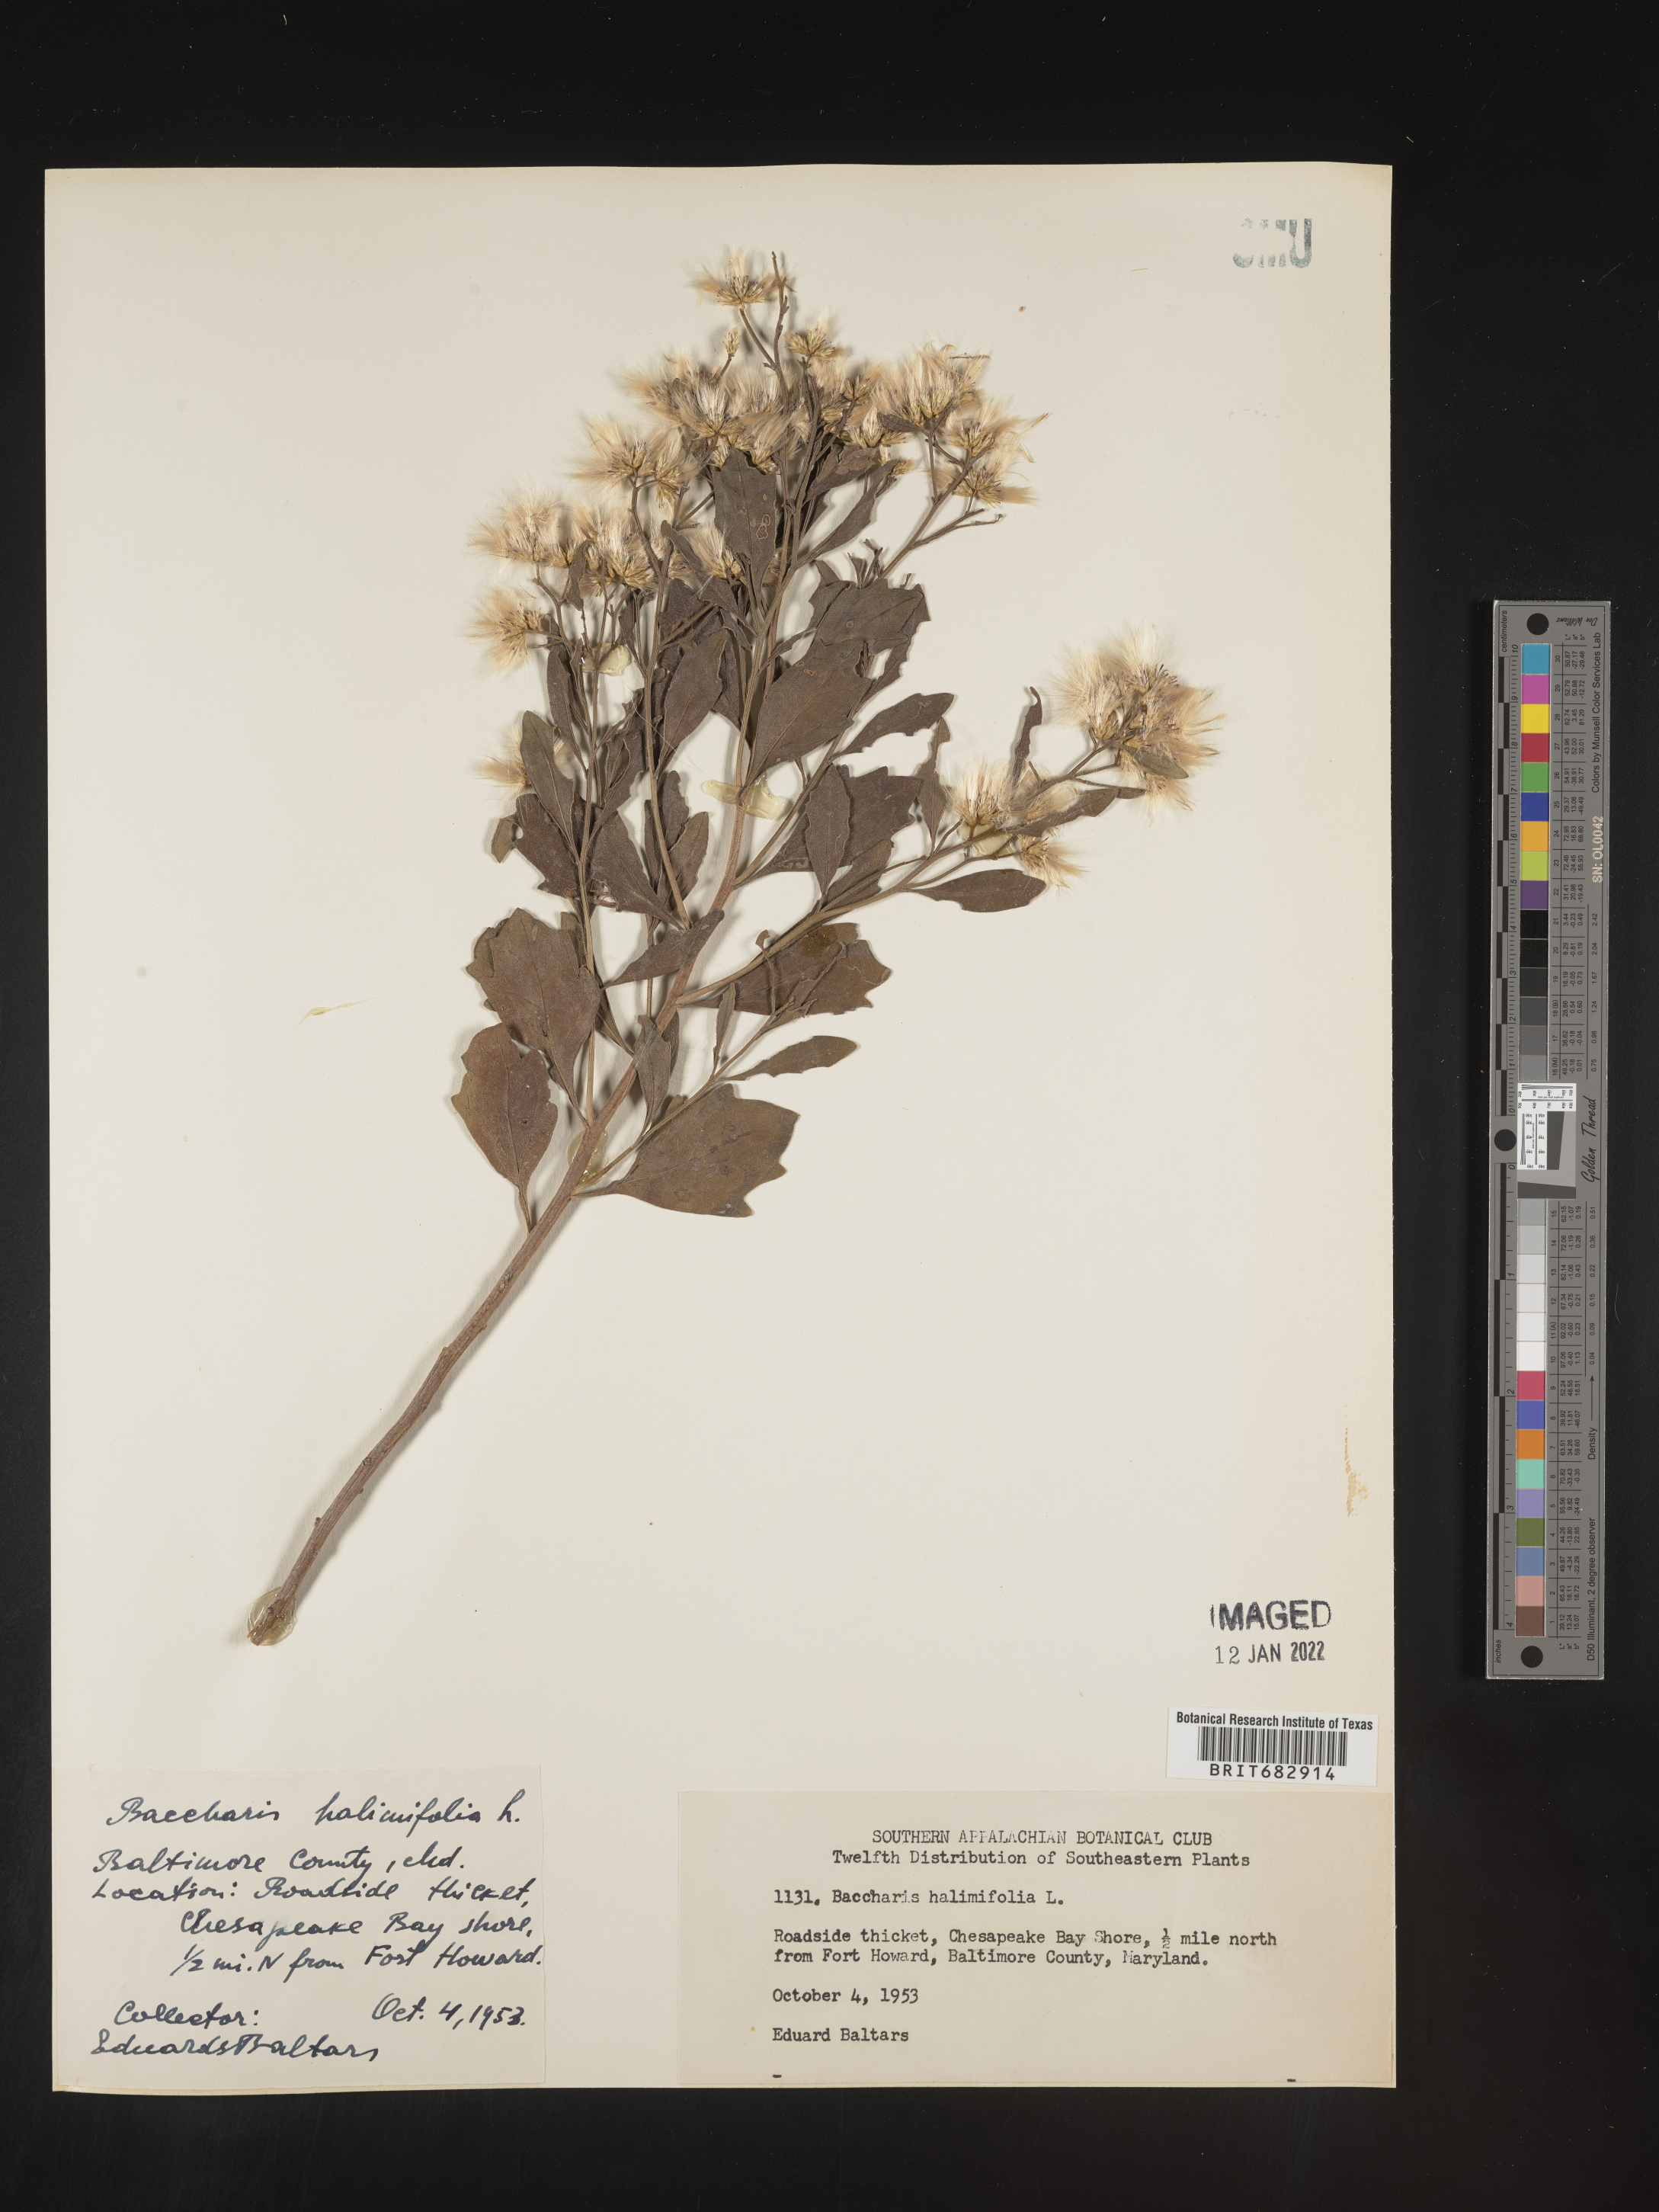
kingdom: Plantae
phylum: Tracheophyta
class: Magnoliopsida
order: Asterales
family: Asteraceae
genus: Nidorella
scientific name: Nidorella ivifolia
